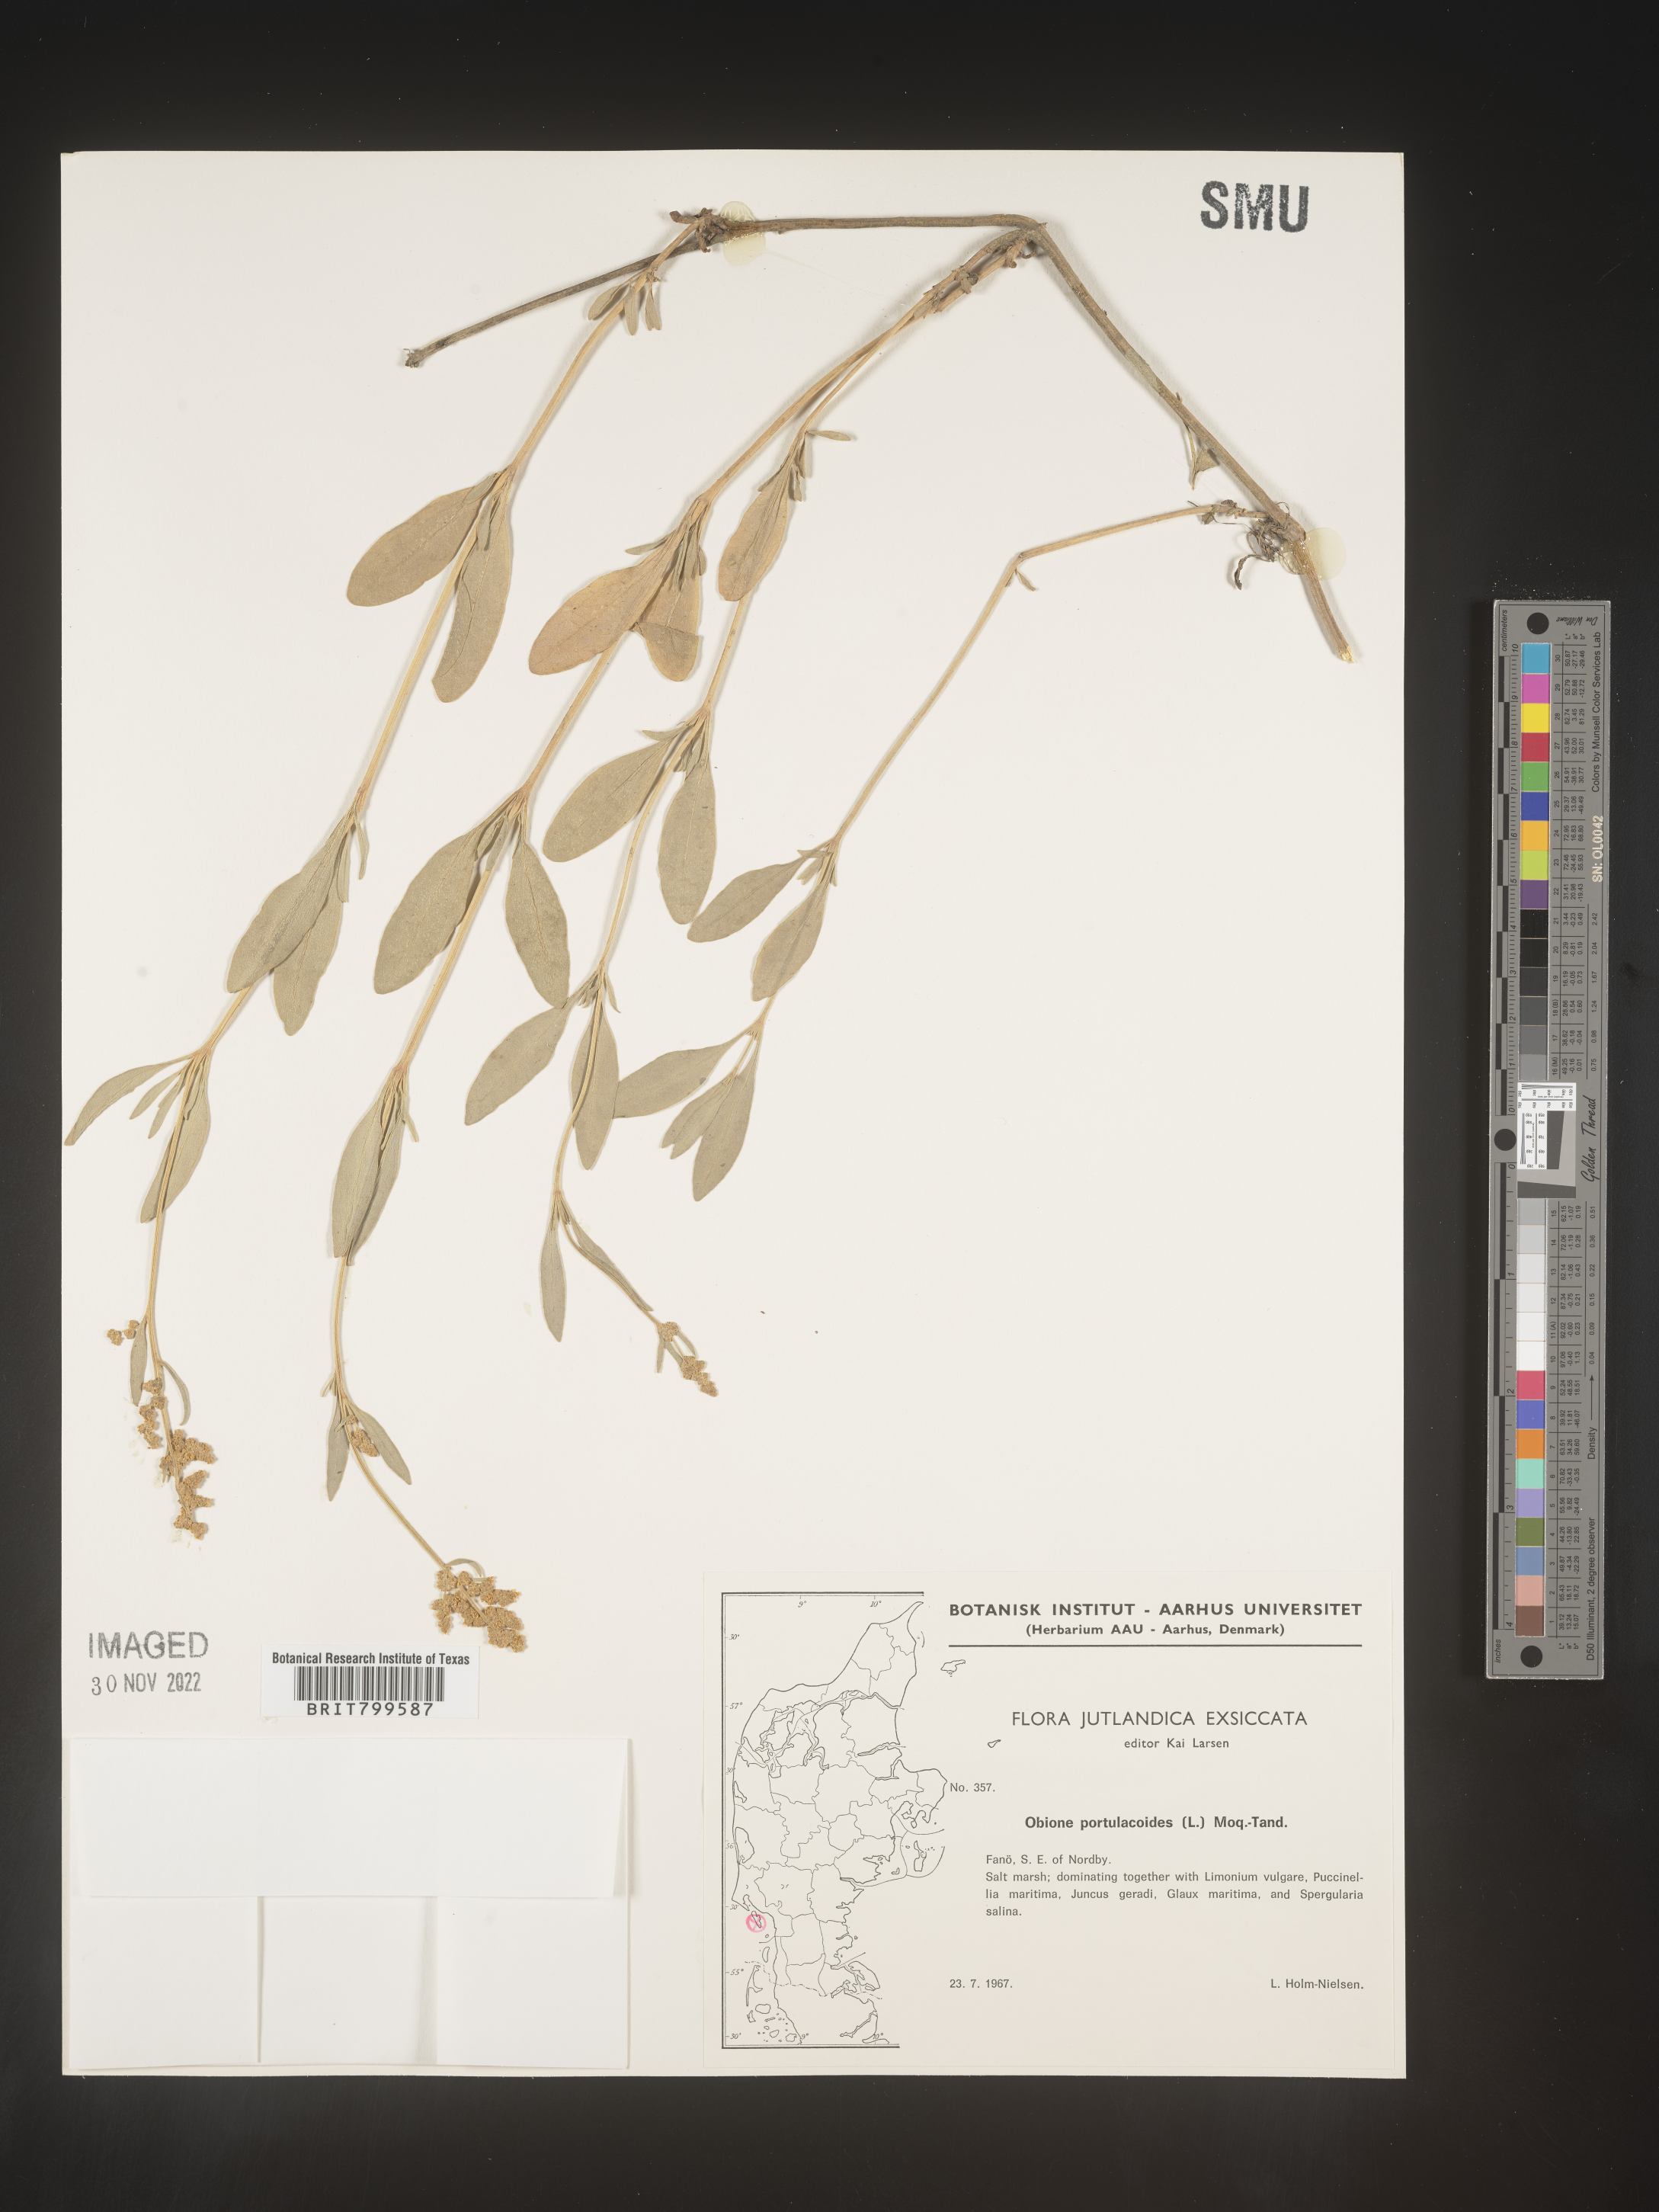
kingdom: Plantae
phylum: Tracheophyta
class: Magnoliopsida
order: Caryophyllales
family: Amaranthaceae
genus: Atriplex
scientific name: Atriplex Obione parvifolia
